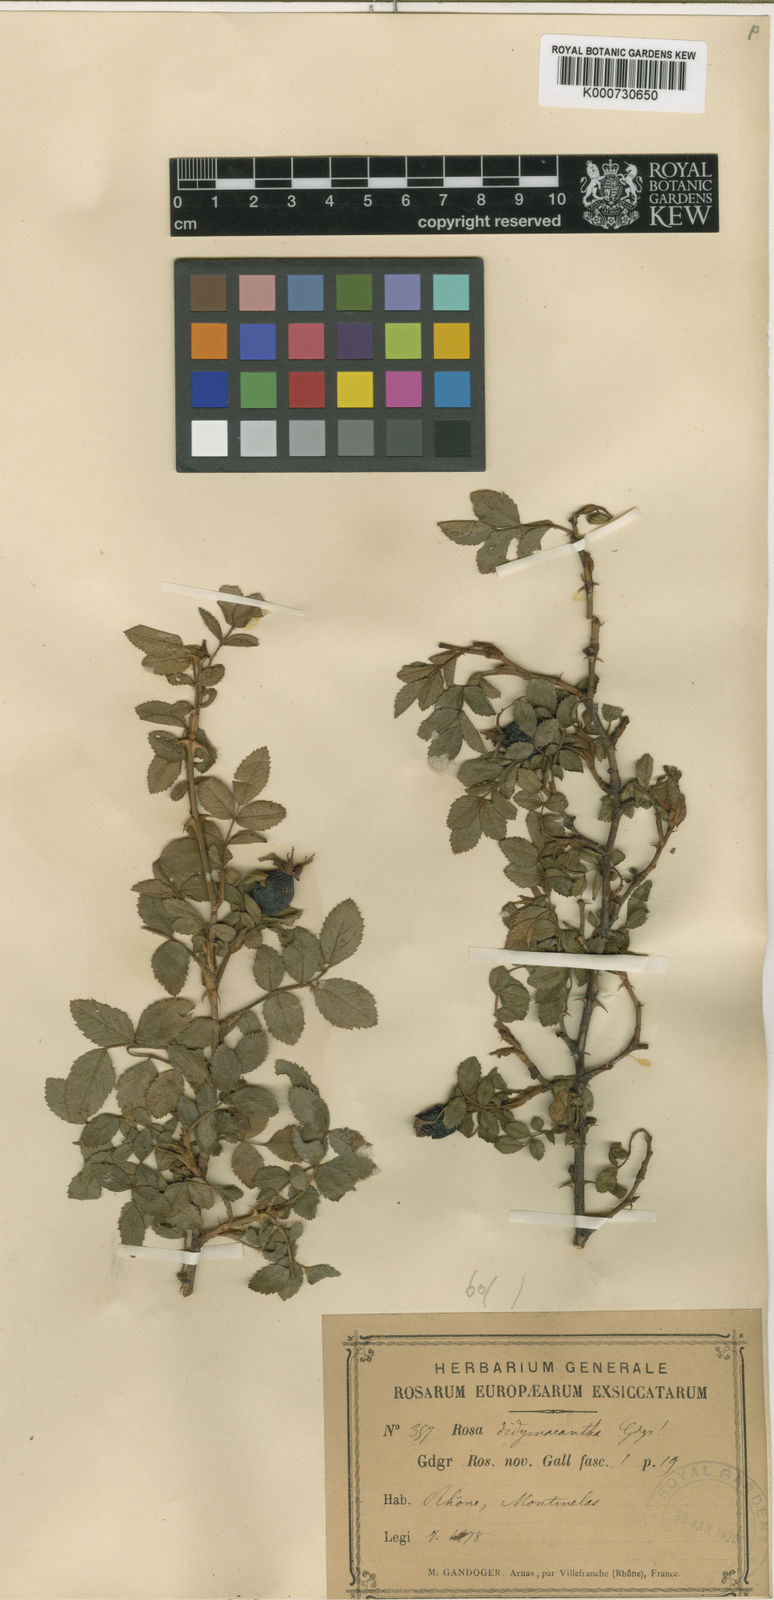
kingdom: Plantae
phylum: Tracheophyta
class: Magnoliopsida
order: Rosales
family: Rosaceae
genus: Rosa
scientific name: Rosa agrestis
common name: Fieldbriar
